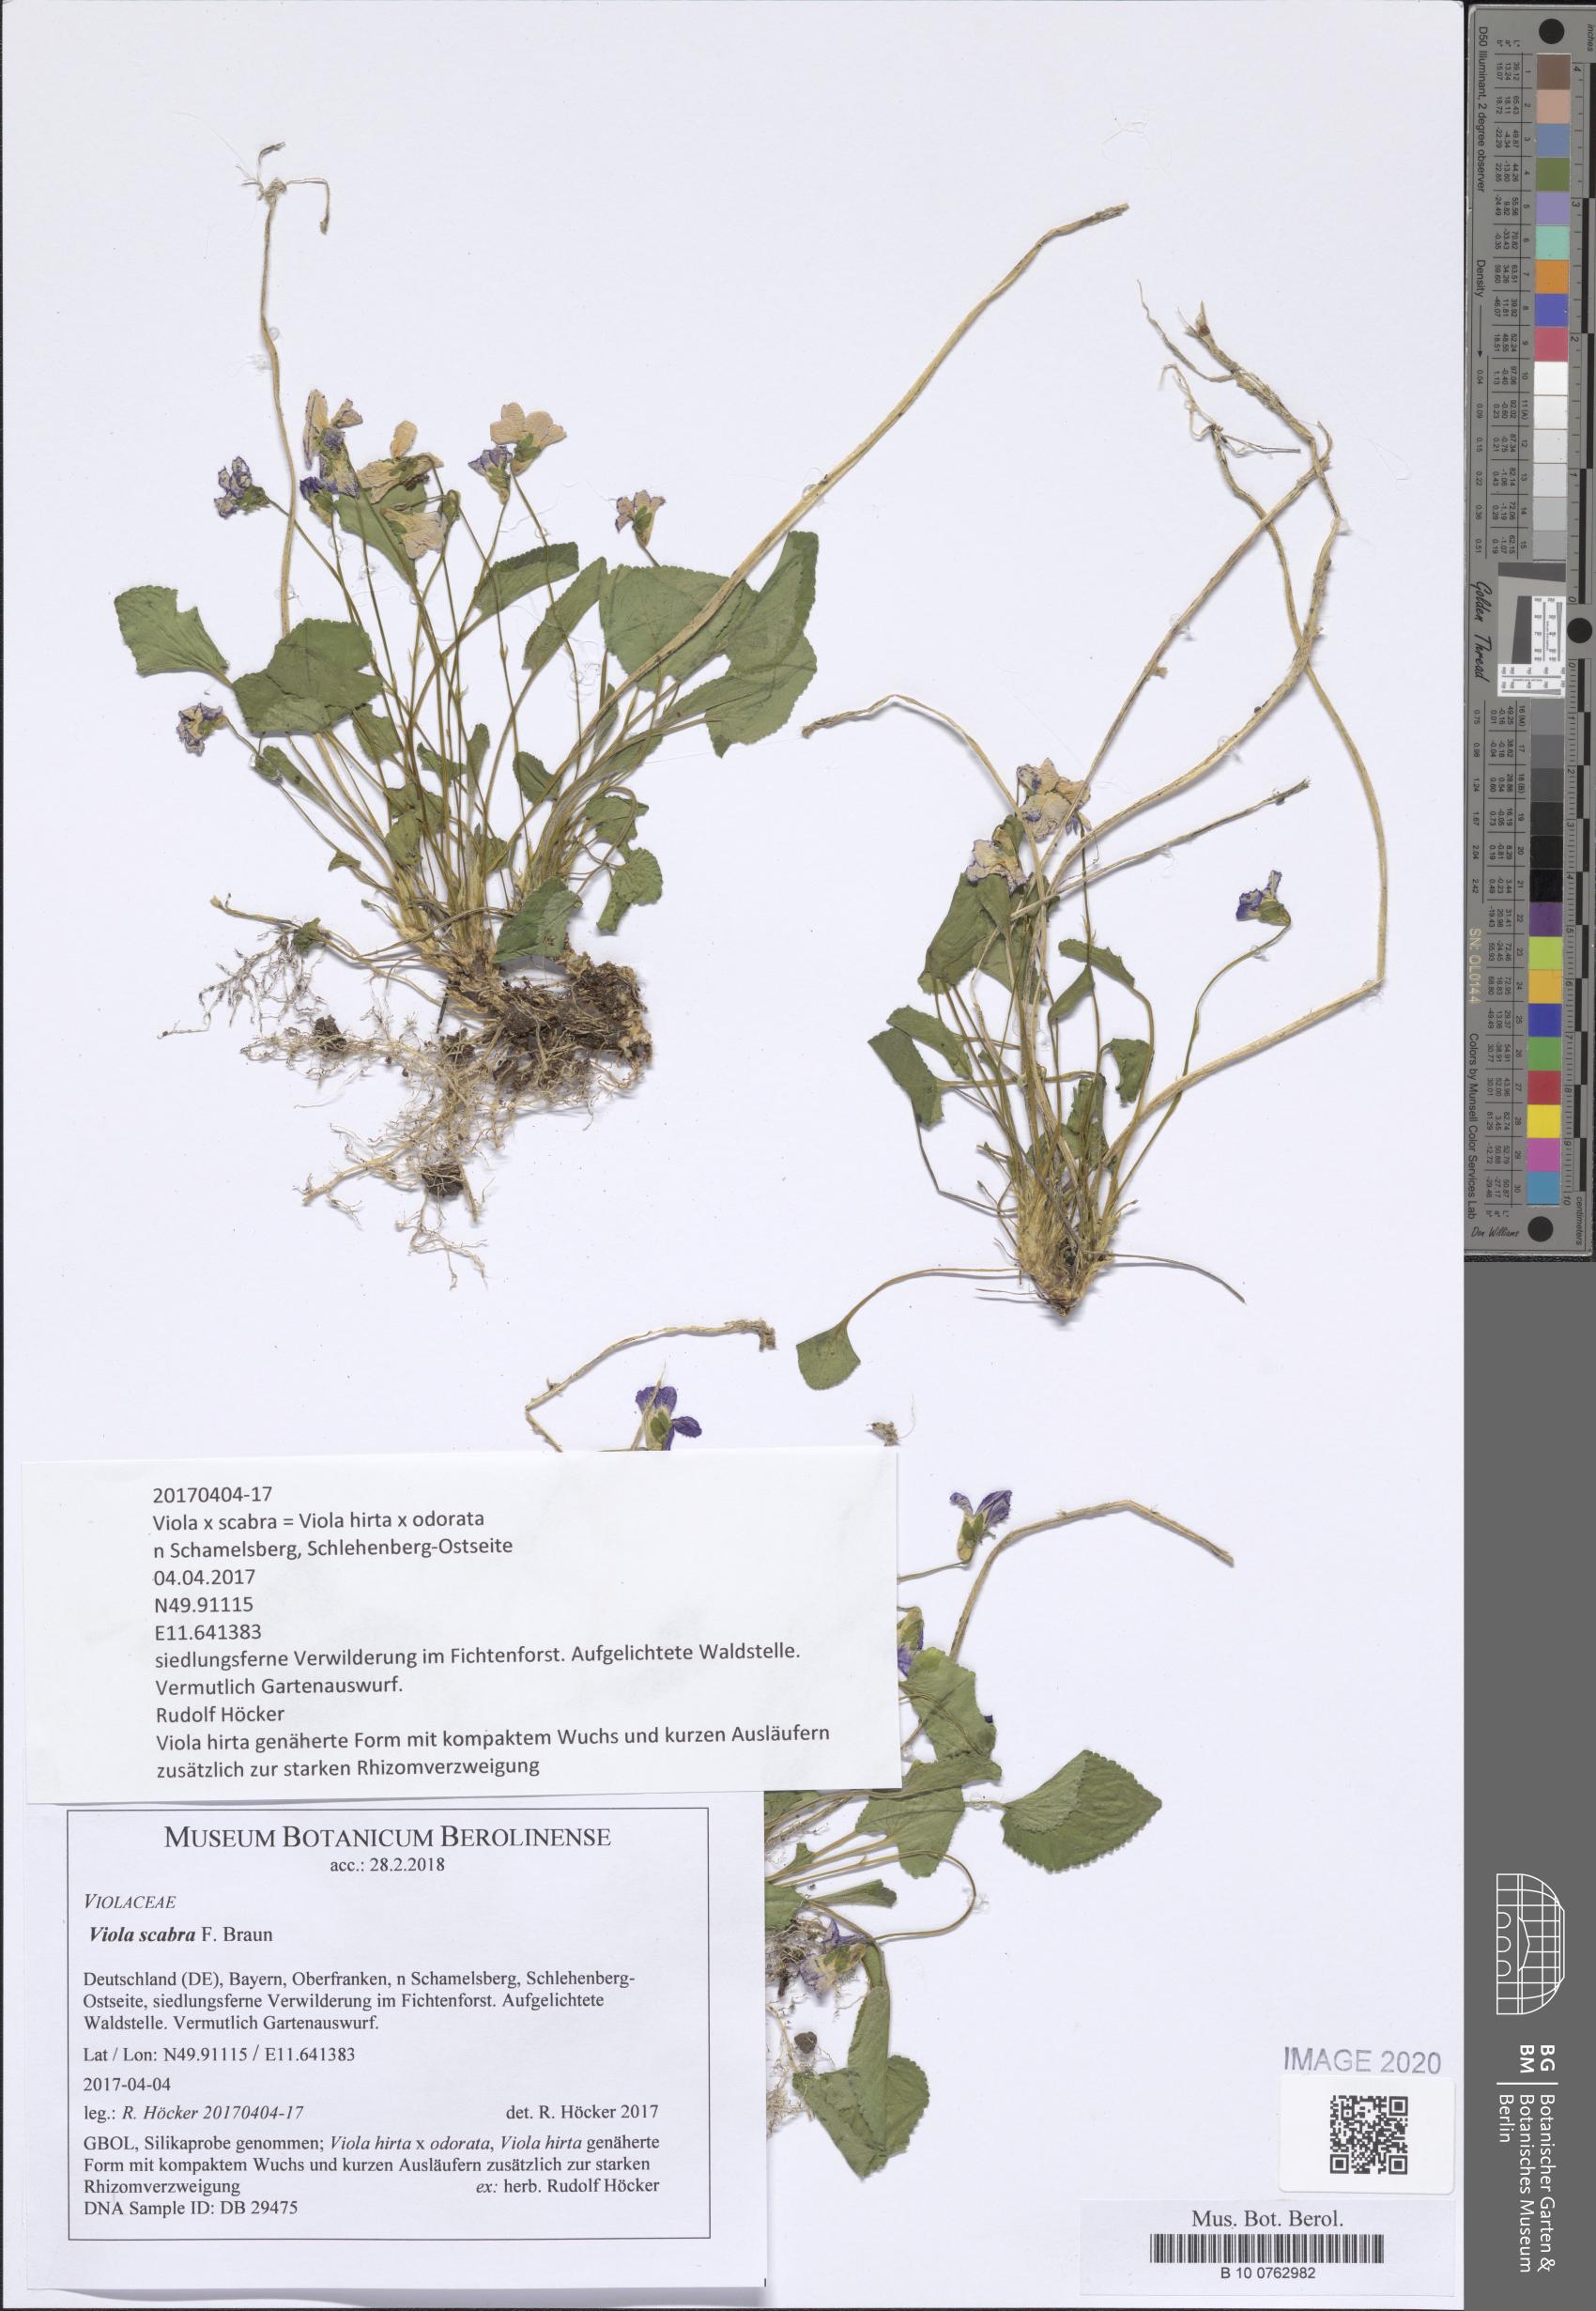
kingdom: Plantae
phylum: Tracheophyta
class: Magnoliopsida
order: Malpighiales
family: Violaceae
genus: Viola
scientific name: Viola scabra
